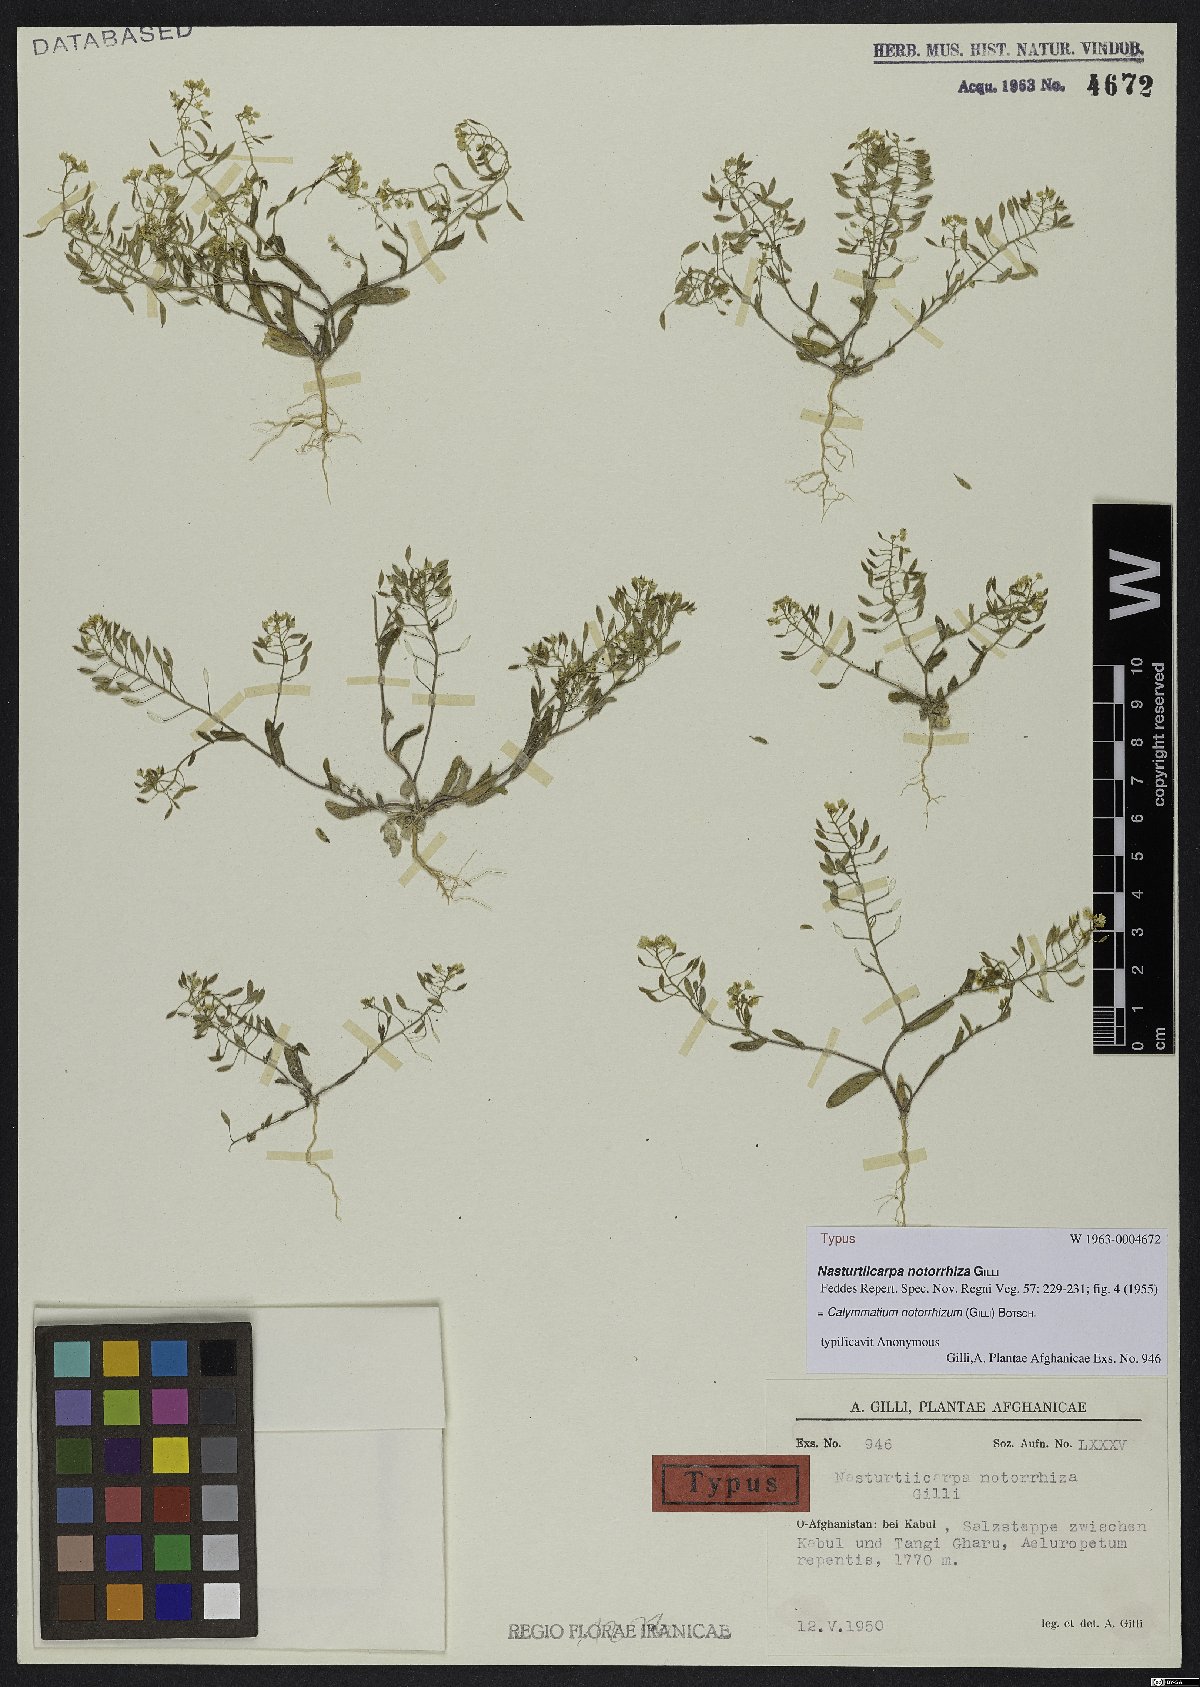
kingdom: Plantae
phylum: Tracheophyta
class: Magnoliopsida
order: Brassicales
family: Brassicaceae
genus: Calymmatium
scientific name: Calymmatium notorrhizum
